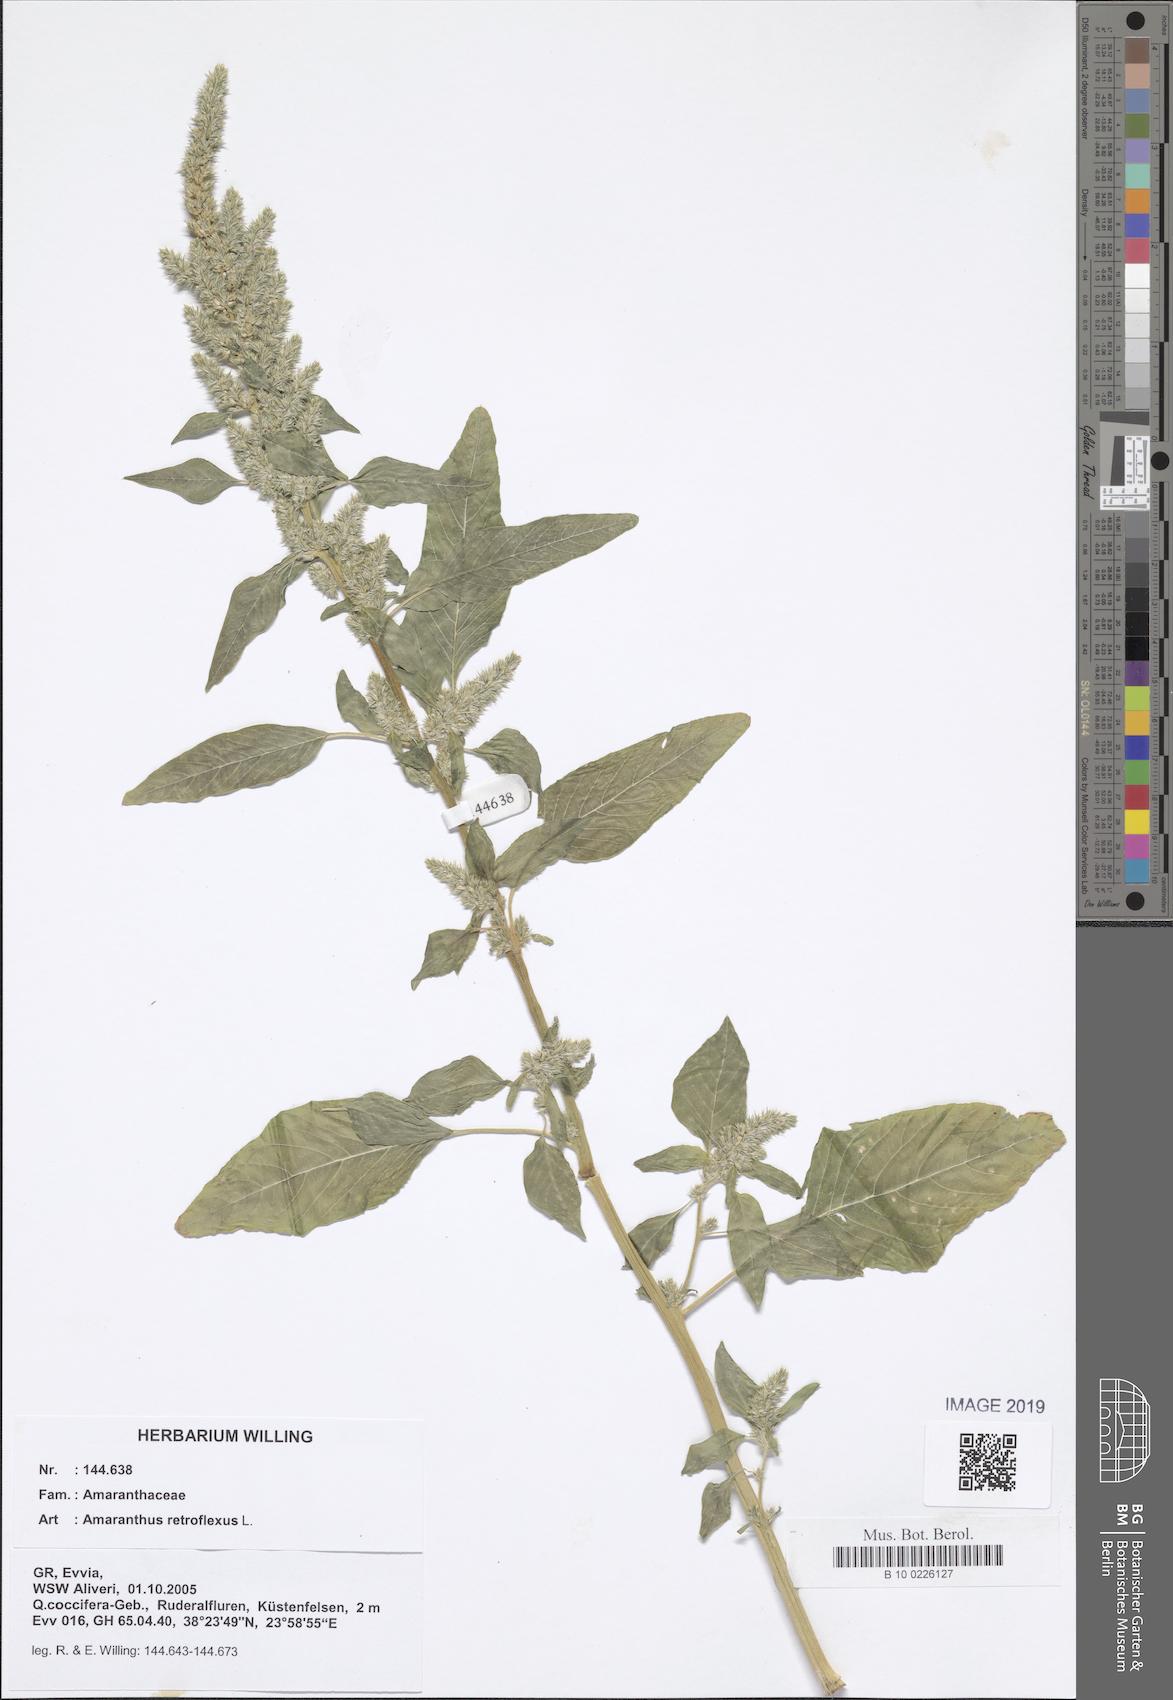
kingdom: Plantae
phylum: Tracheophyta
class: Magnoliopsida
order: Caryophyllales
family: Amaranthaceae
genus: Amaranthus
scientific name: Amaranthus retroflexus
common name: Redroot amaranth
